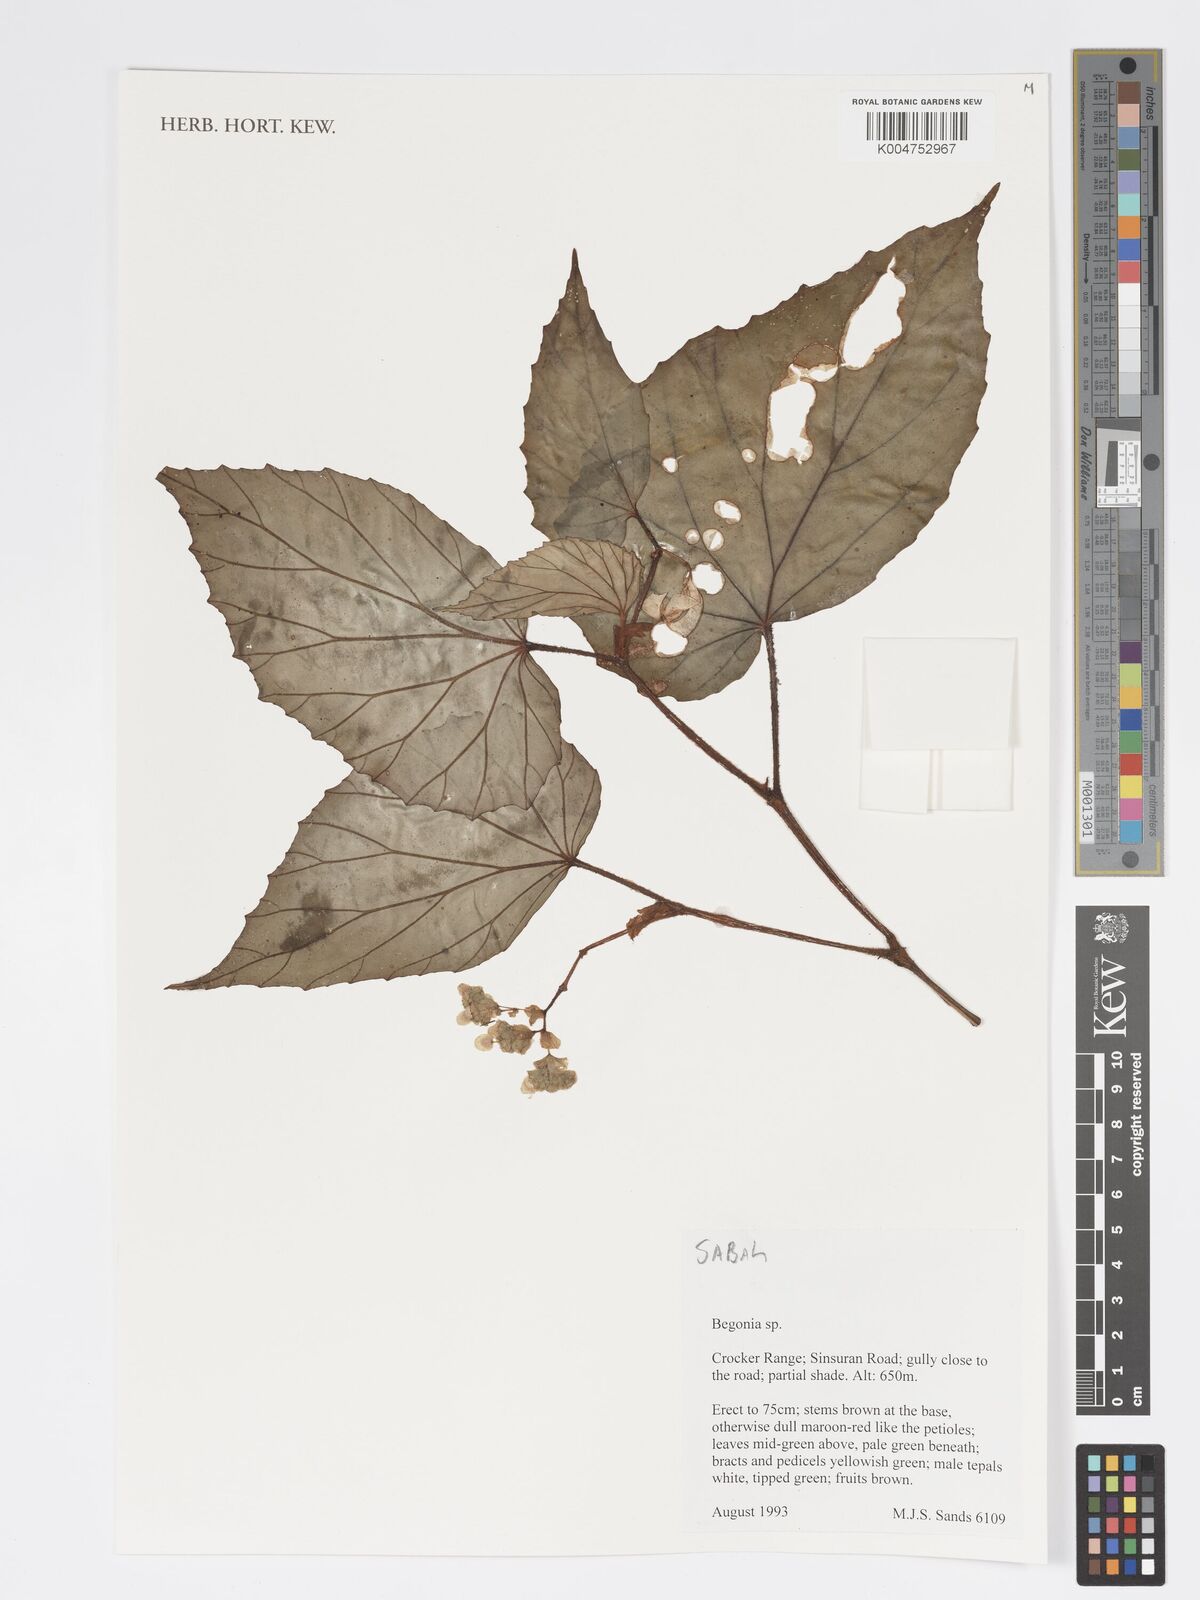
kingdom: Plantae
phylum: Tracheophyta
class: Magnoliopsida
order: Cucurbitales
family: Begoniaceae
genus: Begonia
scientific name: Begonia
